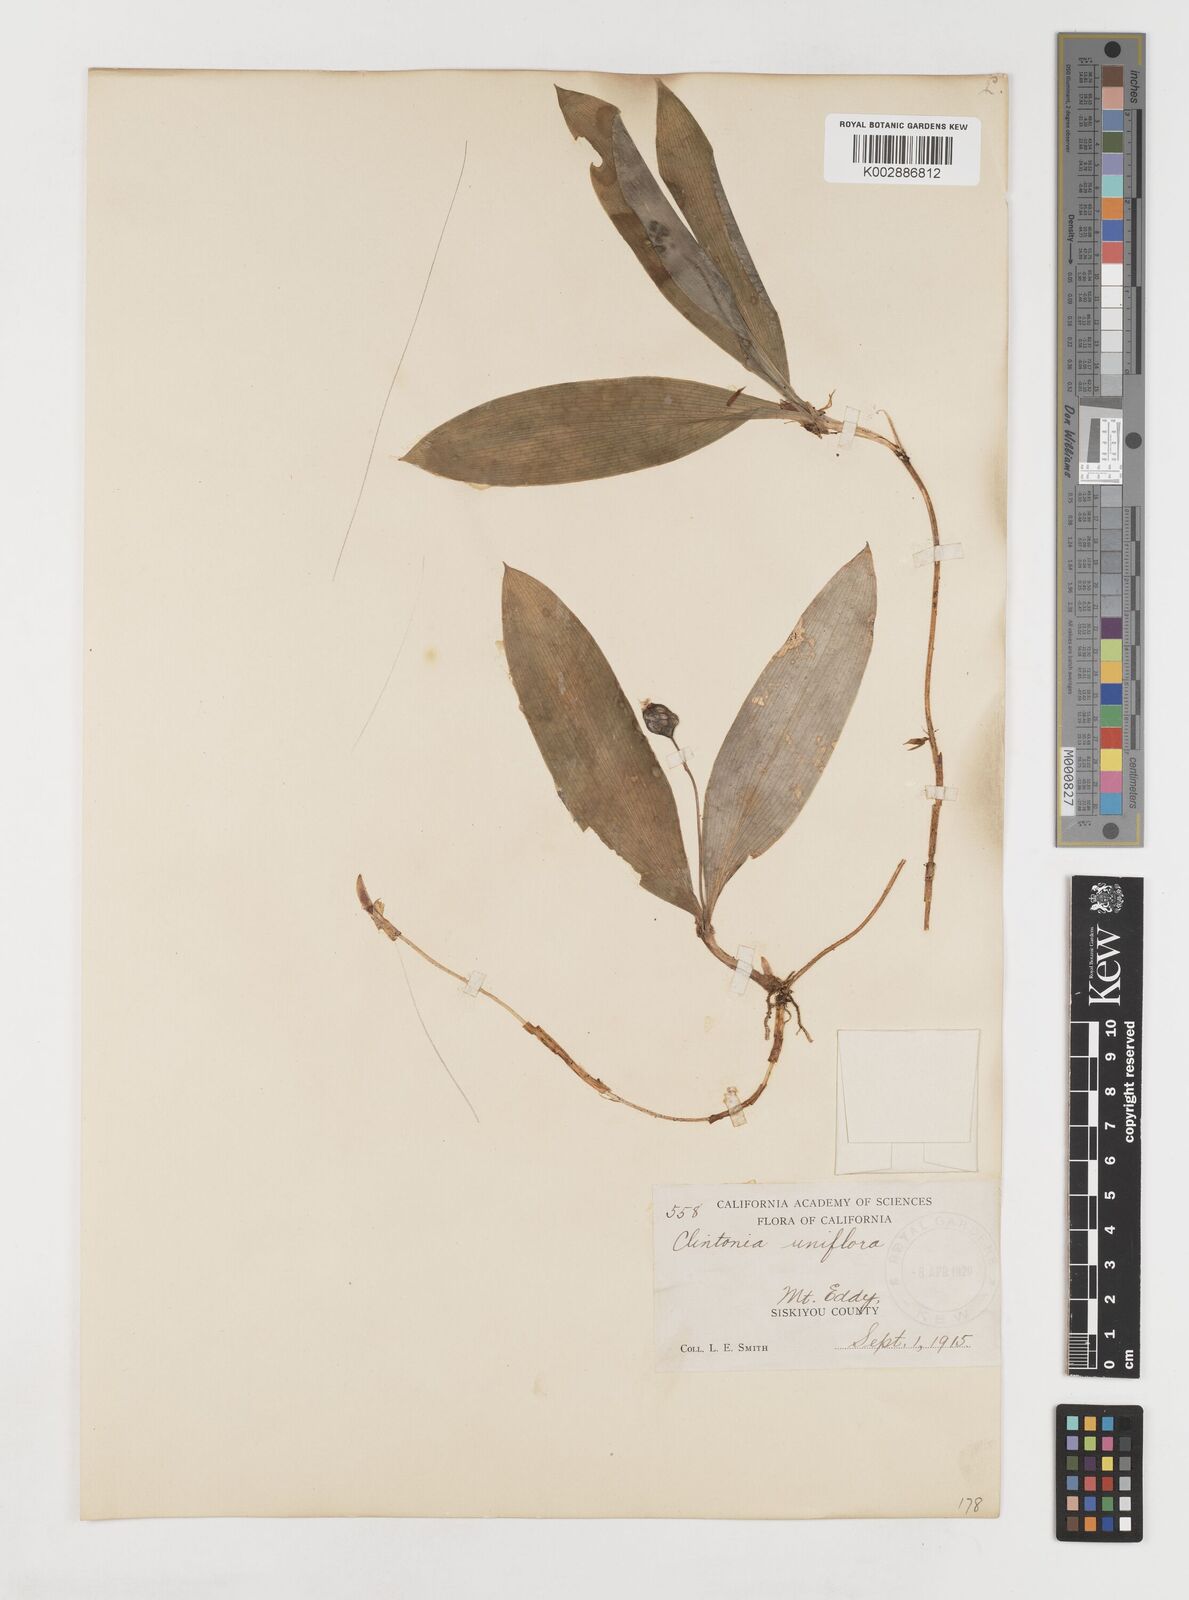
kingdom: Plantae
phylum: Tracheophyta
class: Liliopsida
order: Liliales
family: Liliaceae
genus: Clintonia
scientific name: Clintonia uniflora
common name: Queen's cup
